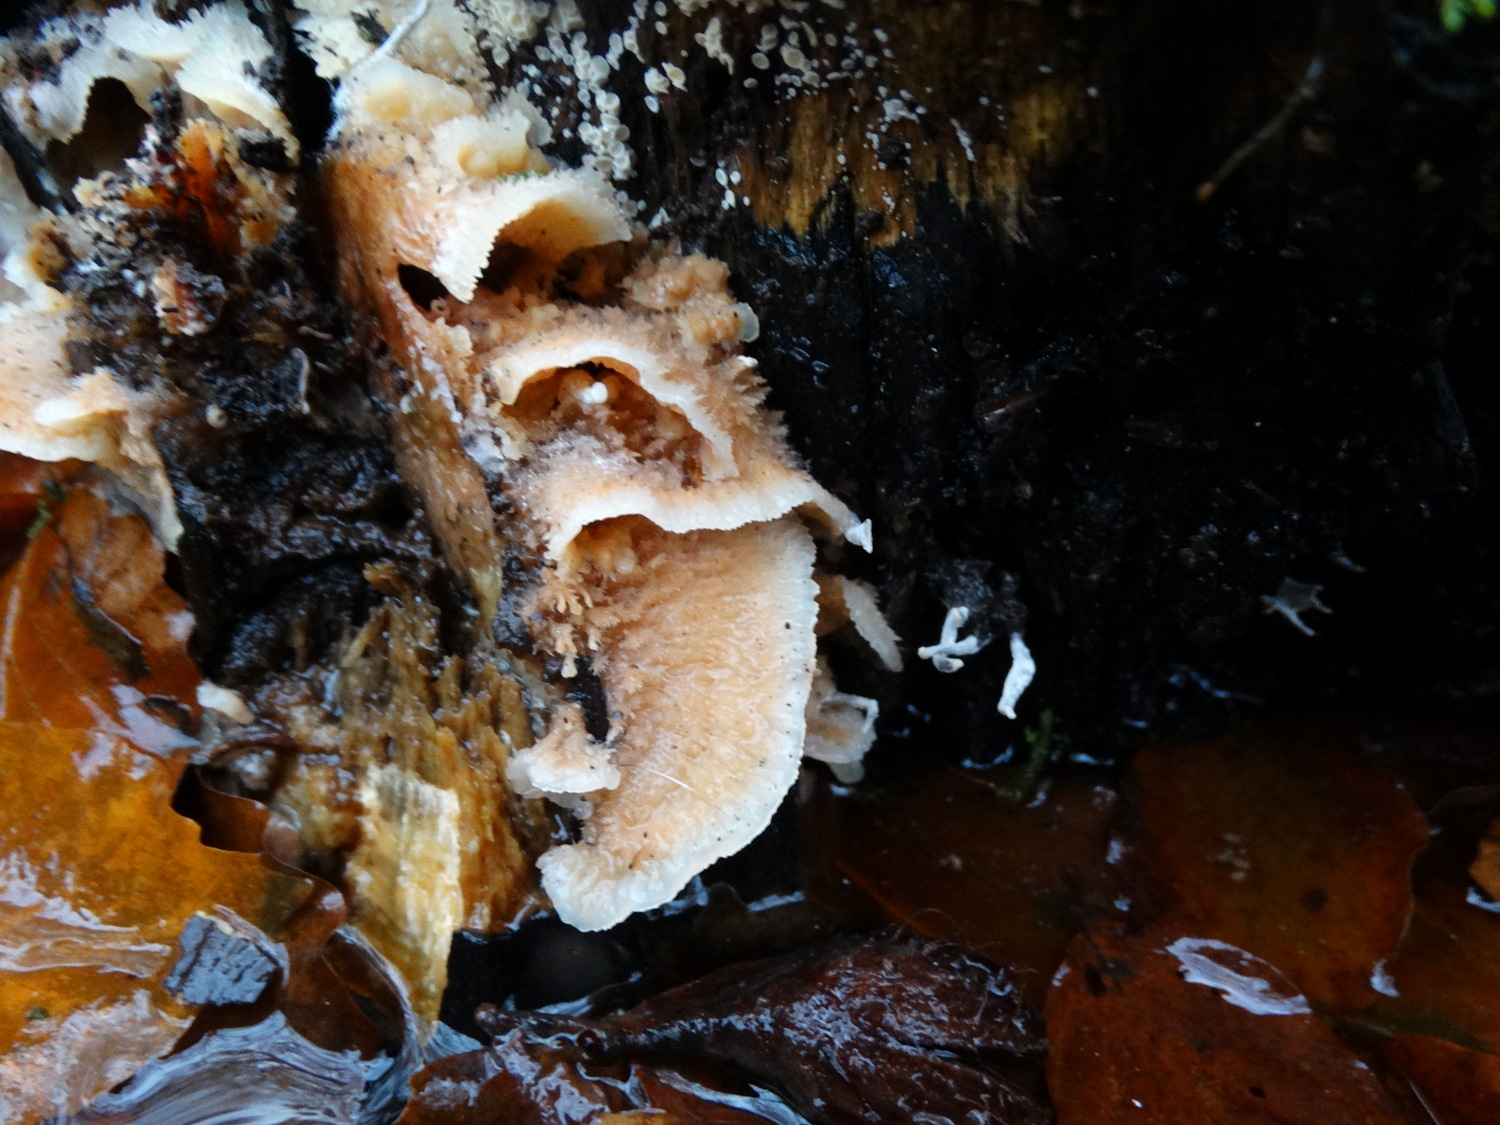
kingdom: Fungi
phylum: Basidiomycota
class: Agaricomycetes
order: Polyporales
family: Meruliaceae
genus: Phlebia
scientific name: Phlebia tremellosa
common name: bævrende åresvamp
